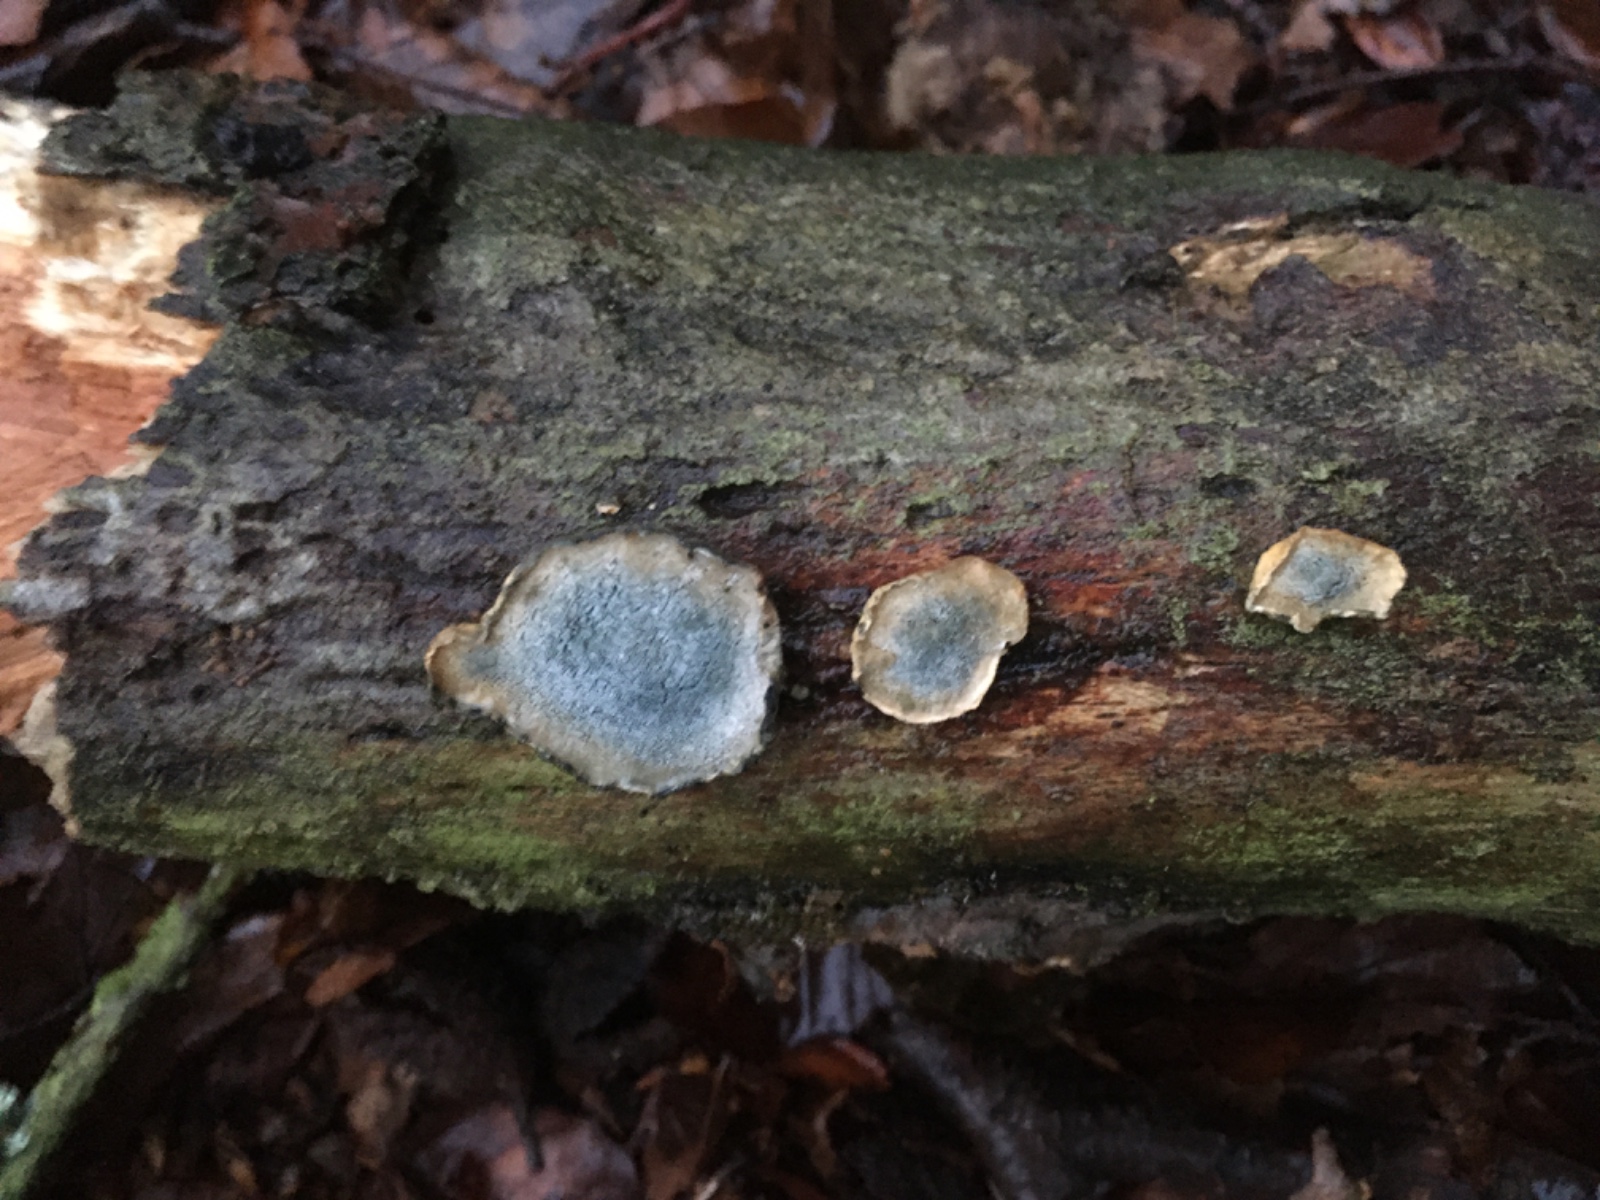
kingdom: Fungi
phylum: Basidiomycota
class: Agaricomycetes
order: Polyporales
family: Polyporaceae
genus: Cyanosporus
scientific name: Cyanosporus alni
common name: blegblå kødporesvamp
